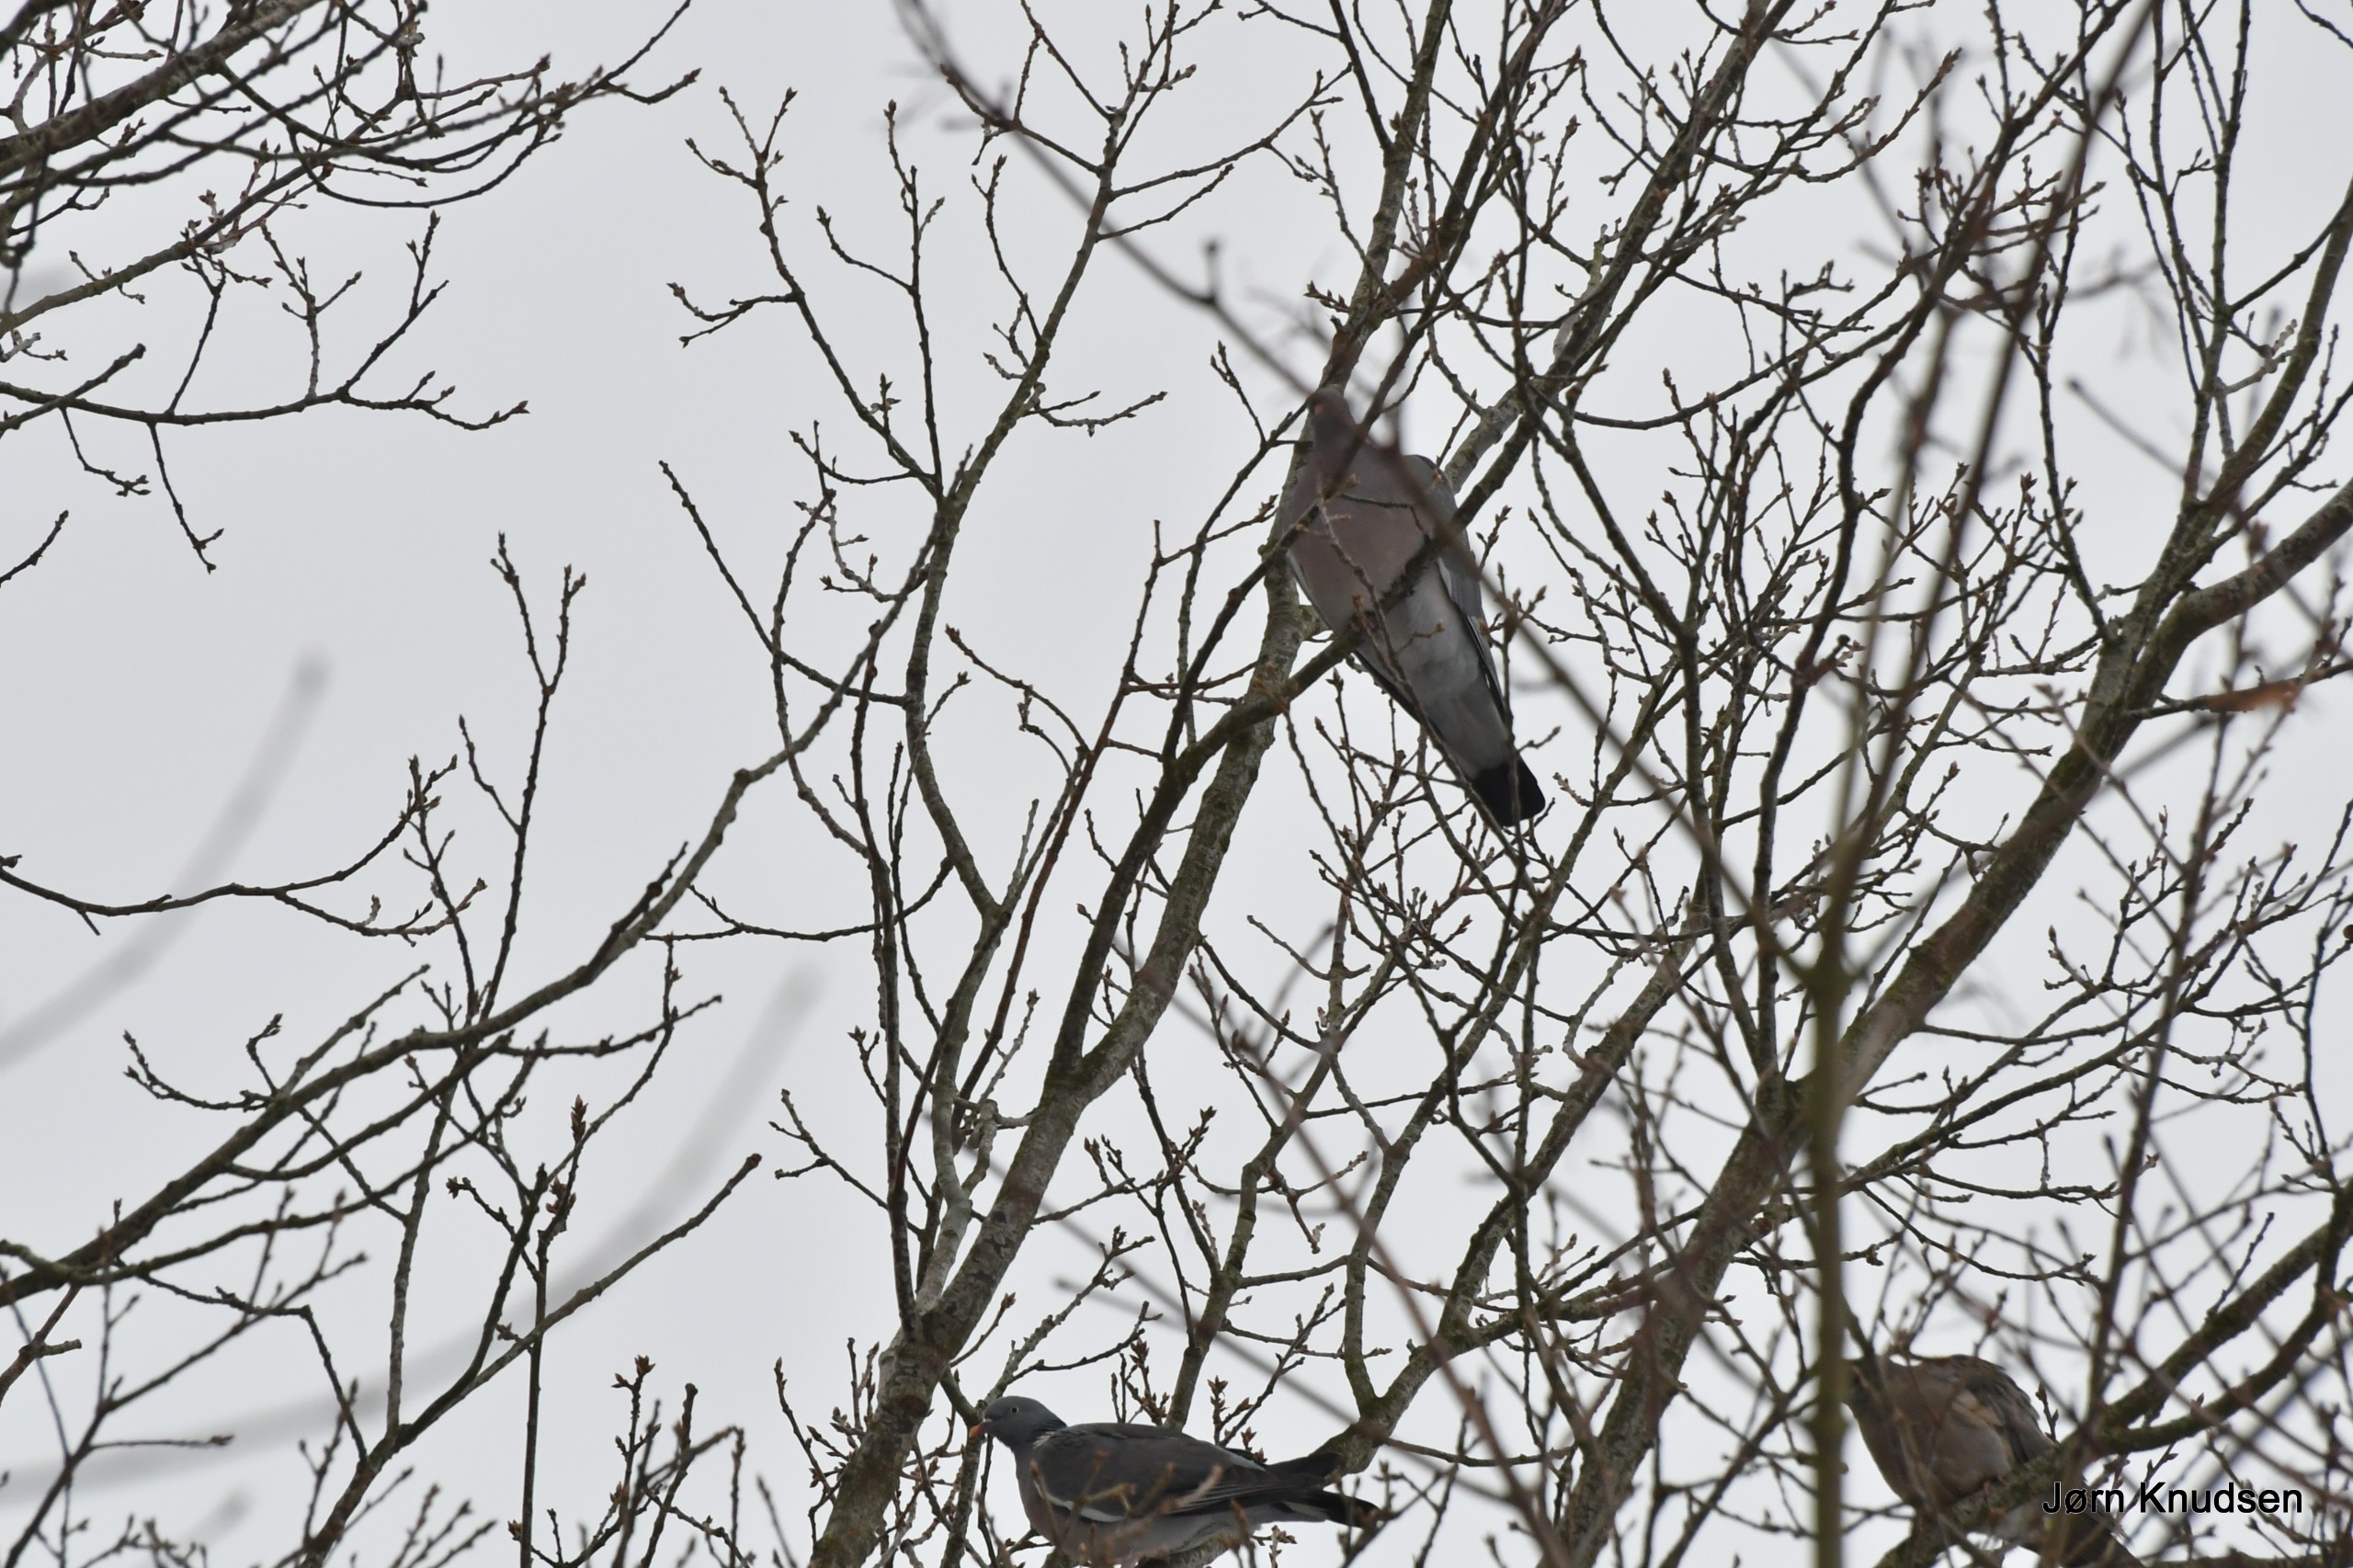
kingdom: Animalia
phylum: Chordata
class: Aves
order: Columbiformes
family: Columbidae
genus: Columba
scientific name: Columba palumbus
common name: Ringdue
